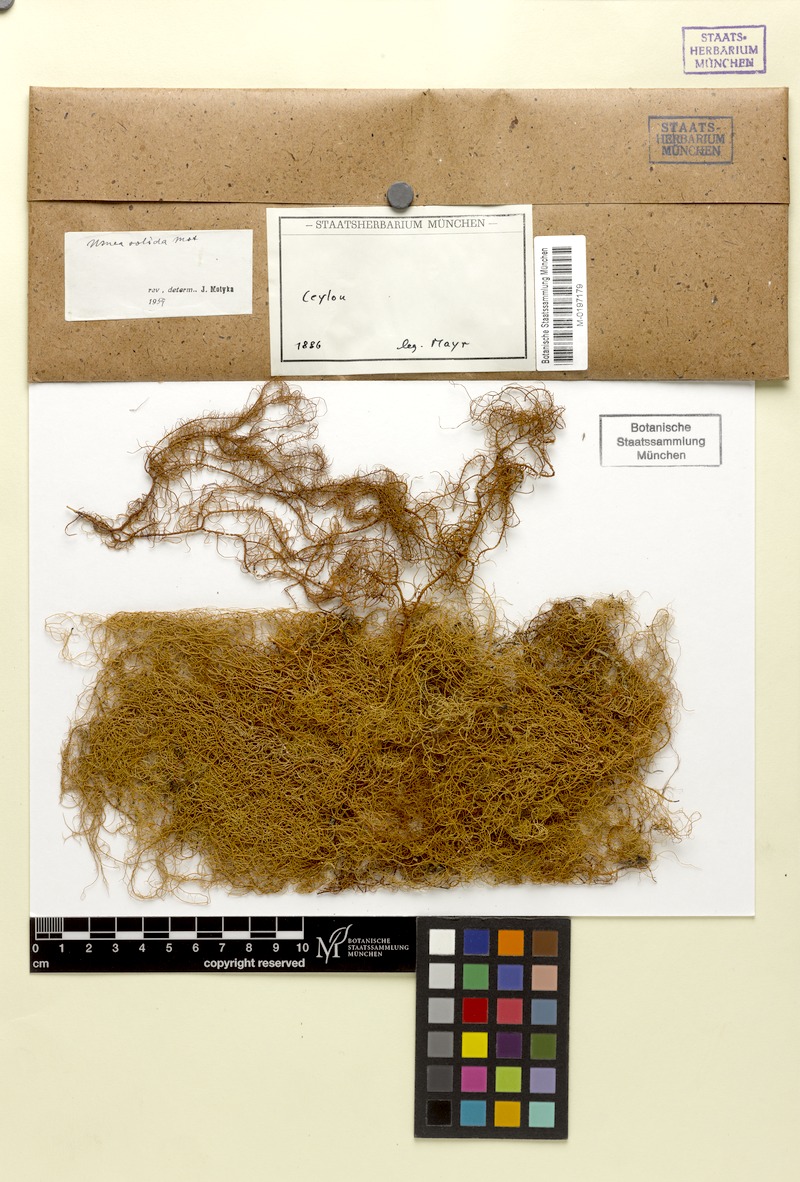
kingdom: Fungi
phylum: Ascomycota
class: Lecanoromycetes
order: Lecanorales
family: Parmeliaceae
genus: Usnea
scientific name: Usnea
